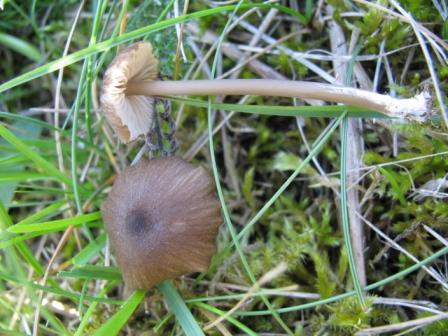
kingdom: Fungi
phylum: Basidiomycota
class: Agaricomycetes
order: Agaricales
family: Entolomataceae
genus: Entoloma
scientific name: Entoloma longistriatum
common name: gråfodet rødblad
